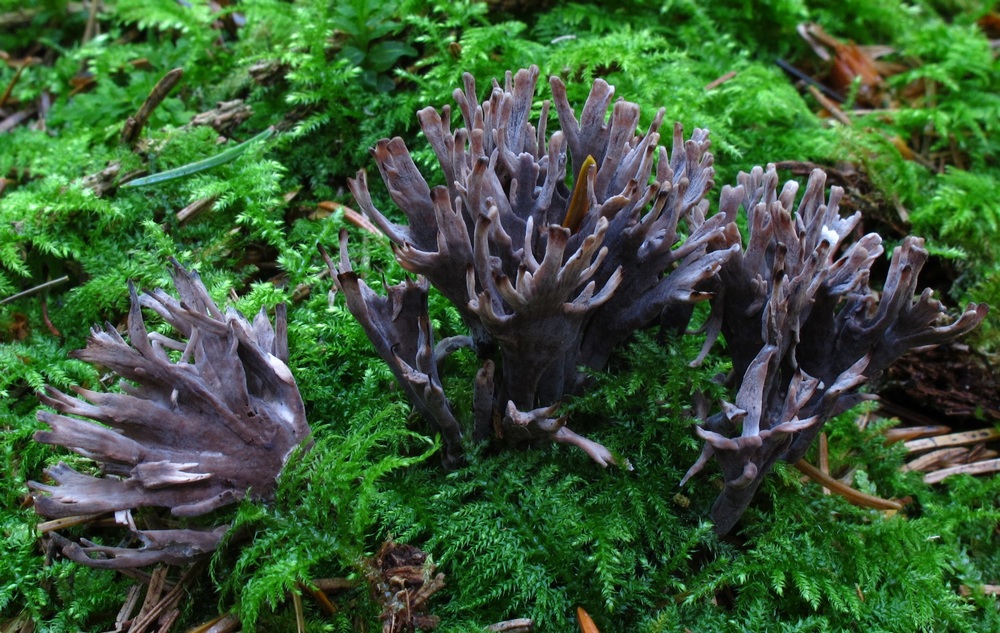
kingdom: Fungi
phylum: Basidiomycota
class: Agaricomycetes
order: Thelephorales
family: Thelephoraceae
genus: Thelephora
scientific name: Thelephora palmata
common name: grenet frynsesvamp
